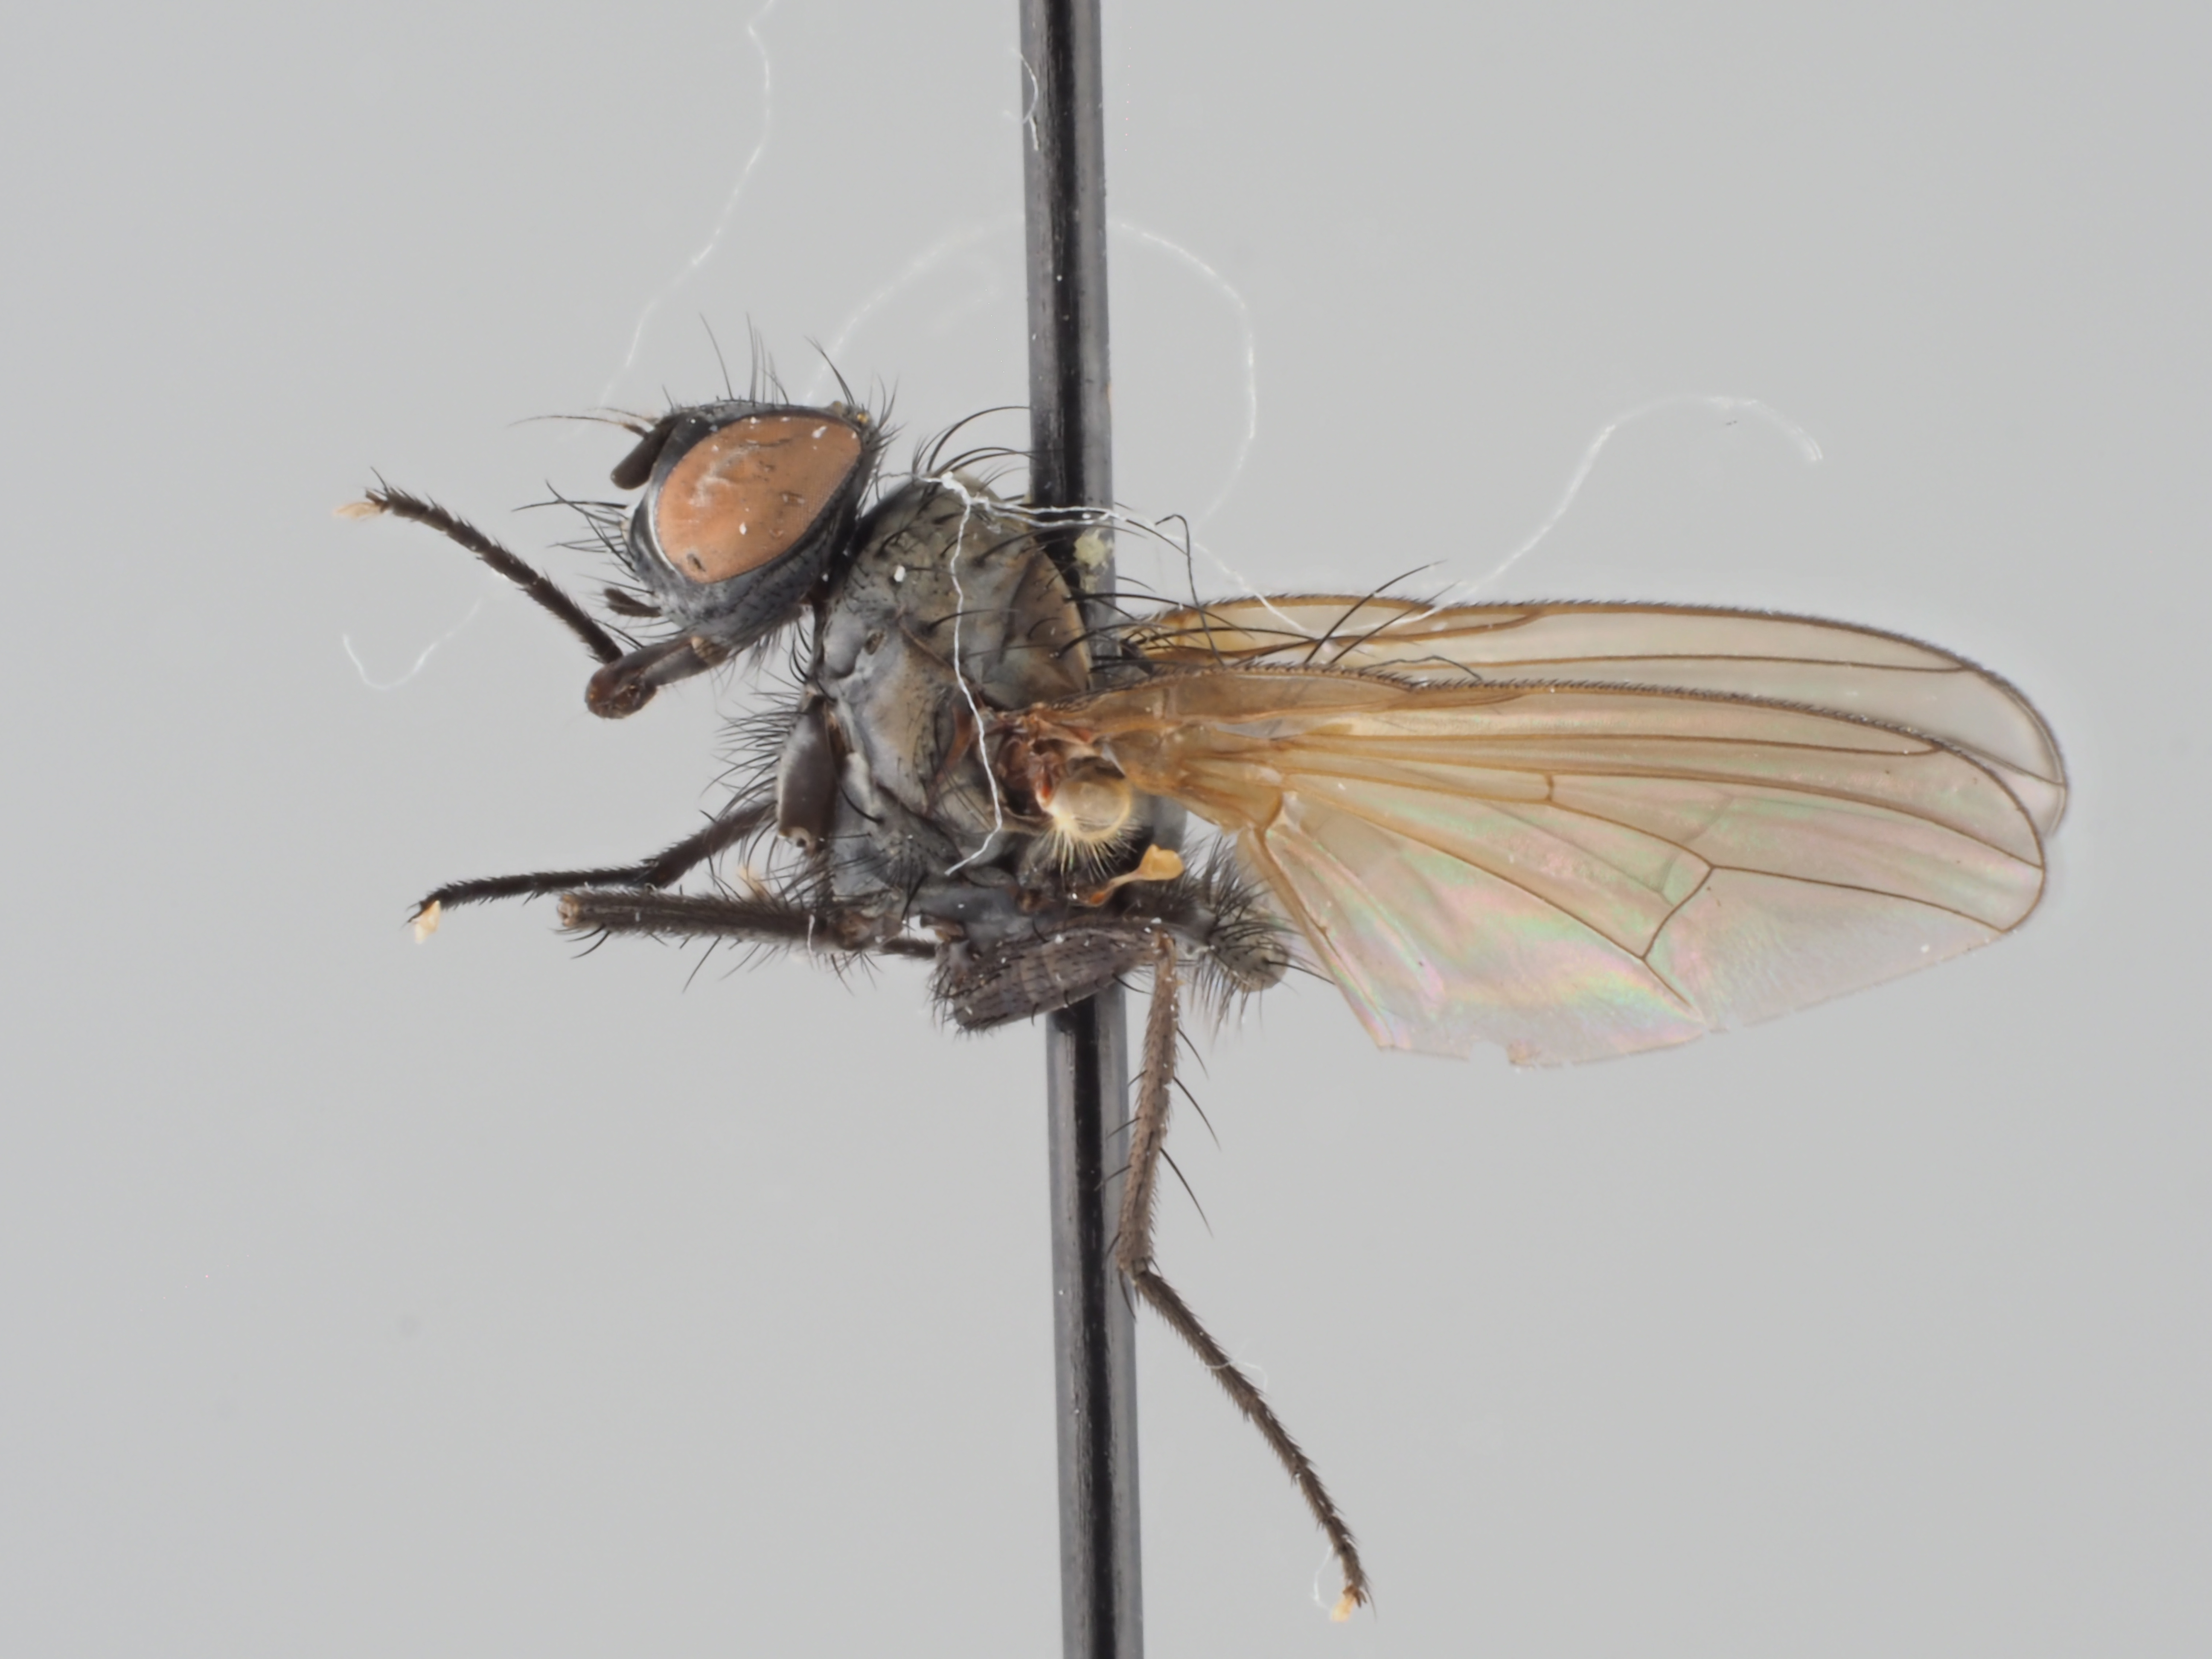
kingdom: Animalia
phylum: Arthropoda
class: Insecta
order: Diptera
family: Anthomyiidae
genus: Delia
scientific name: Delia cuneata
